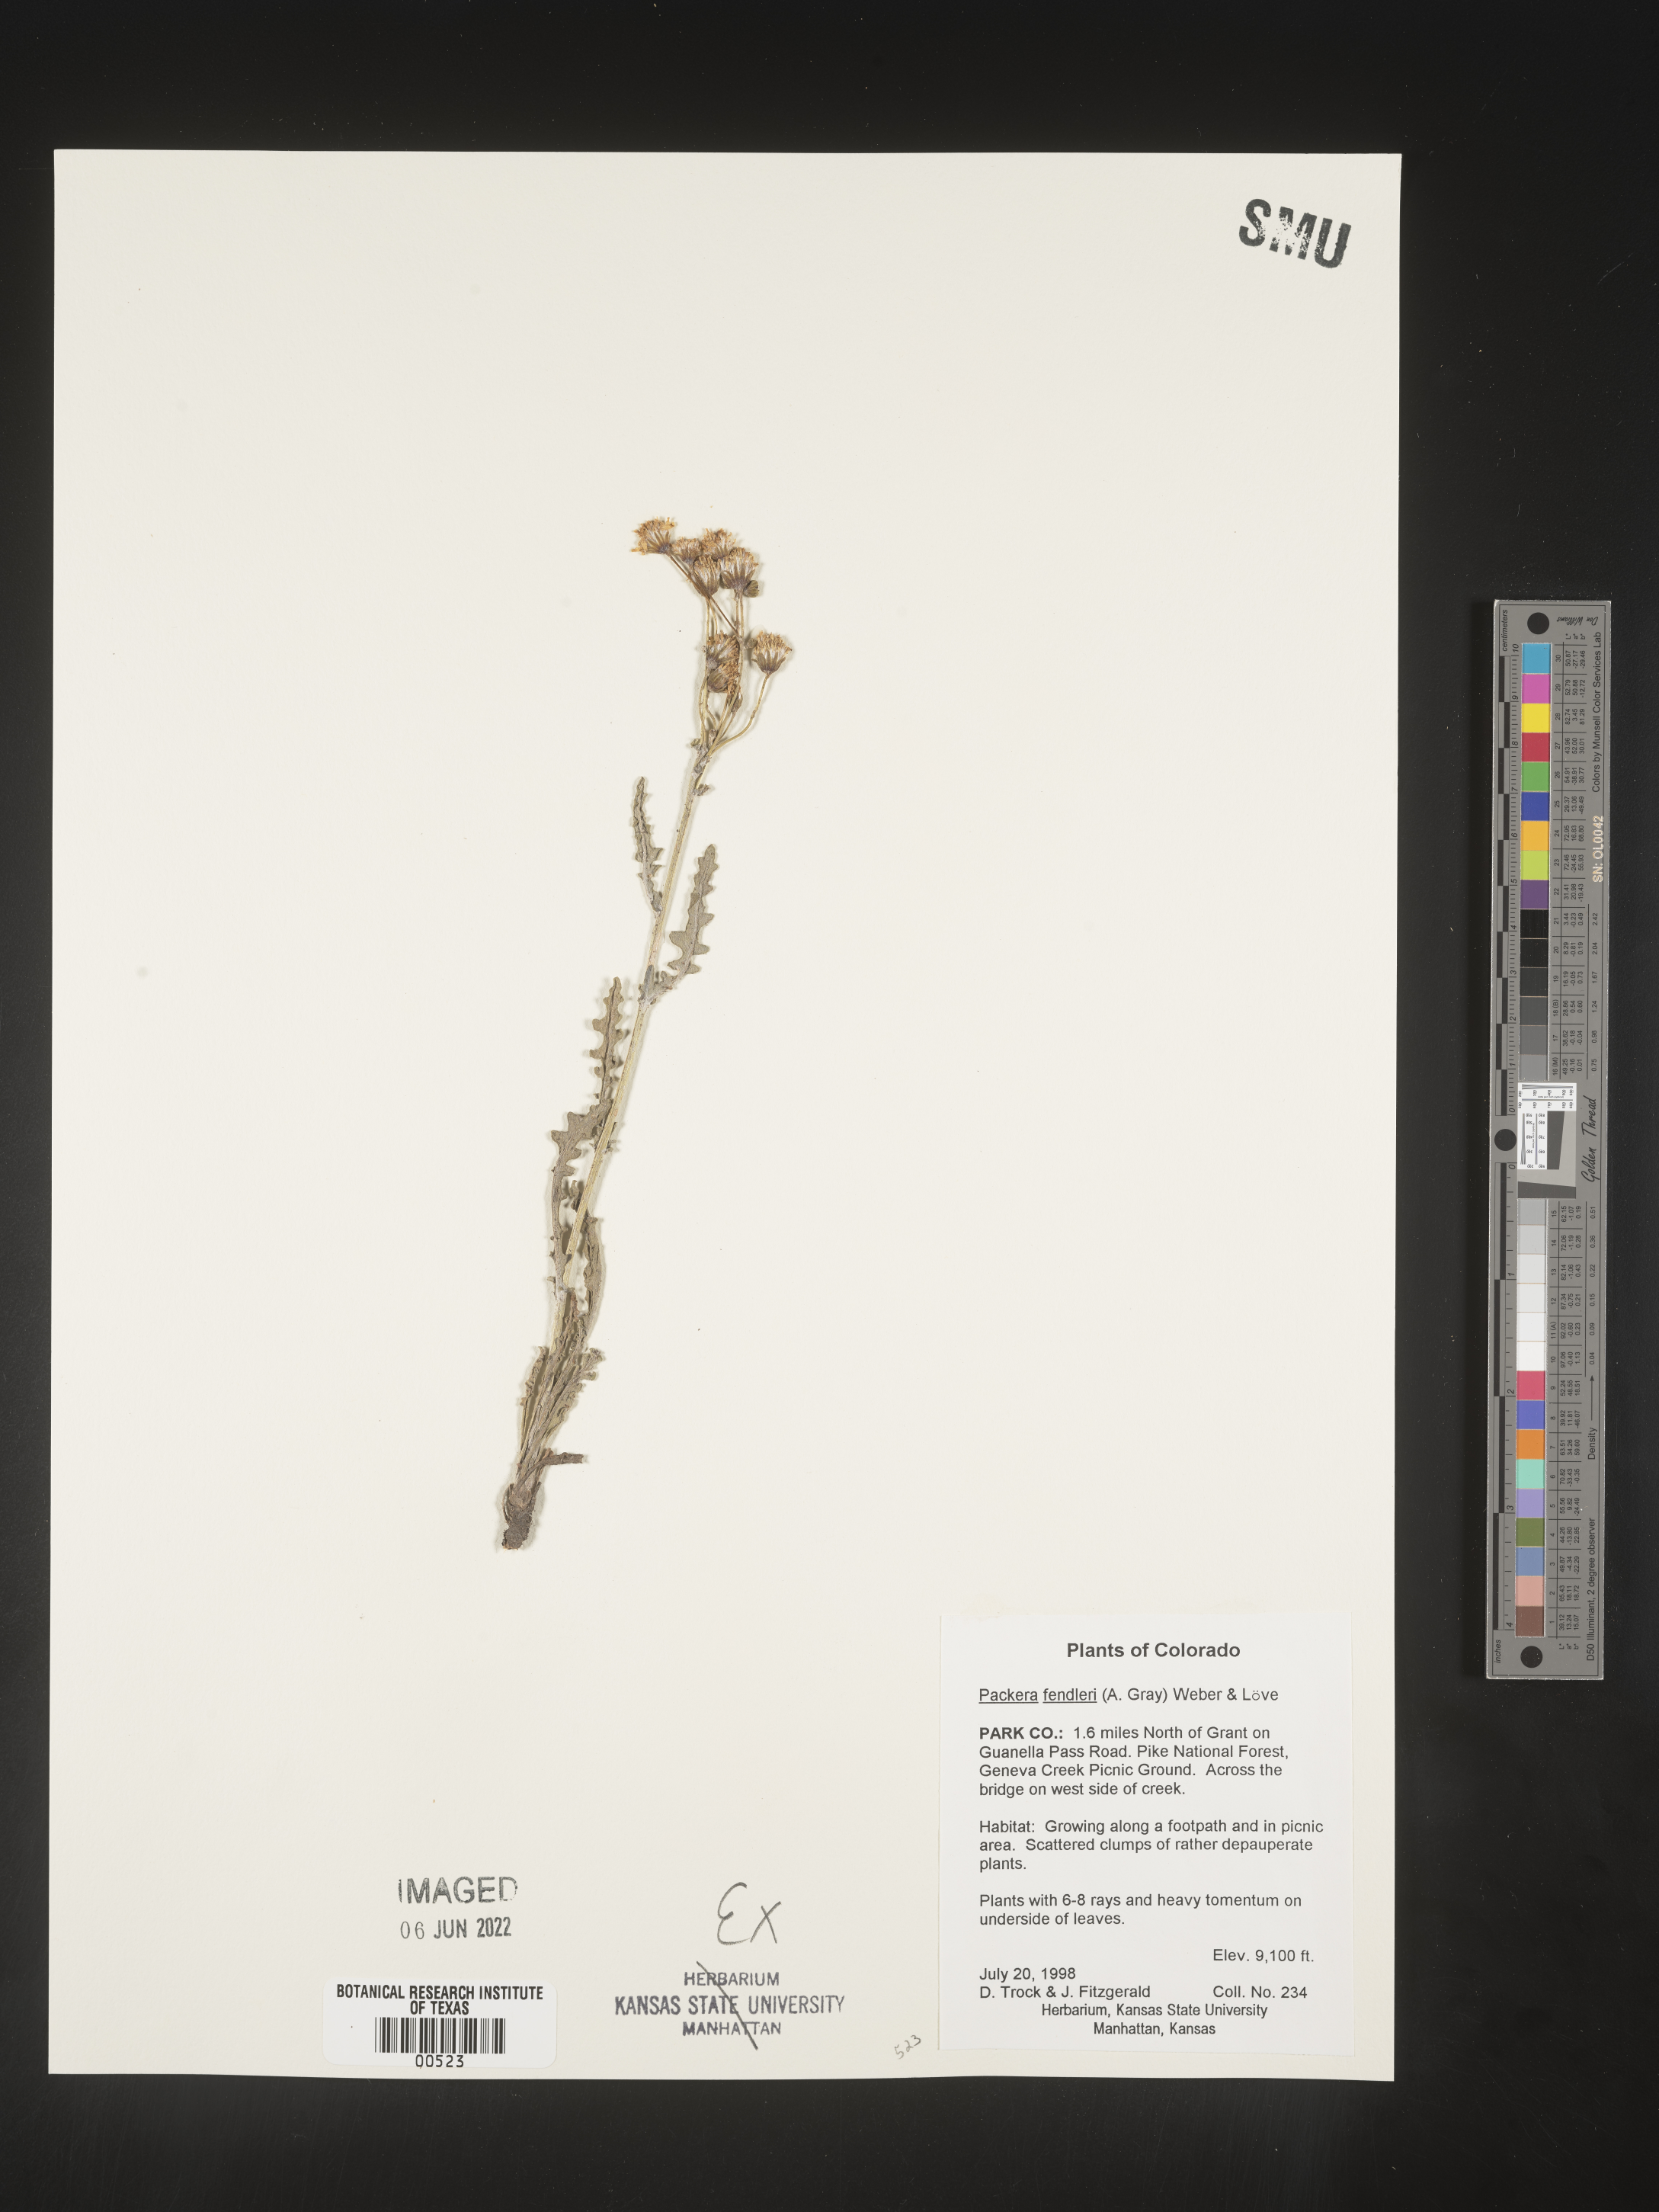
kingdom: Plantae
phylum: Tracheophyta
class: Magnoliopsida
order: Asterales
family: Asteraceae
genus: Packera
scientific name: Packera fendleri
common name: Notch-leaf butterweed
